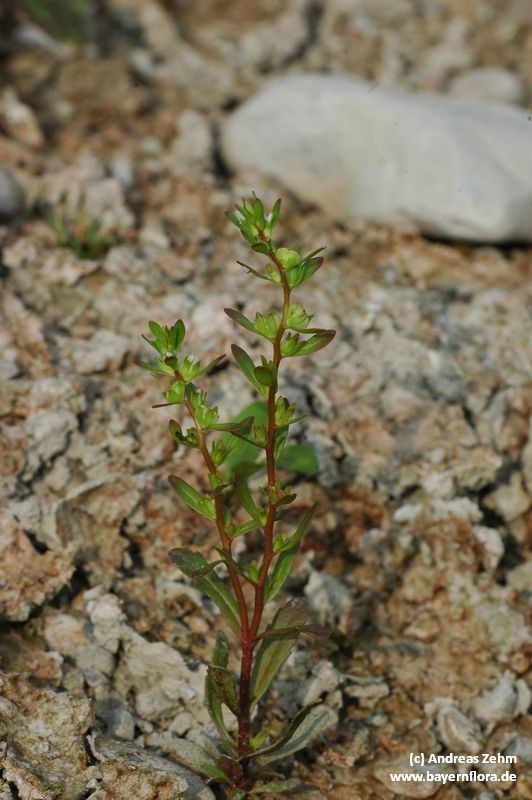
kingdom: Plantae
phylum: Tracheophyta
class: Magnoliopsida
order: Lamiales
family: Plantaginaceae
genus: Veronica
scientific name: Veronica peregrina
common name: Neckweed
